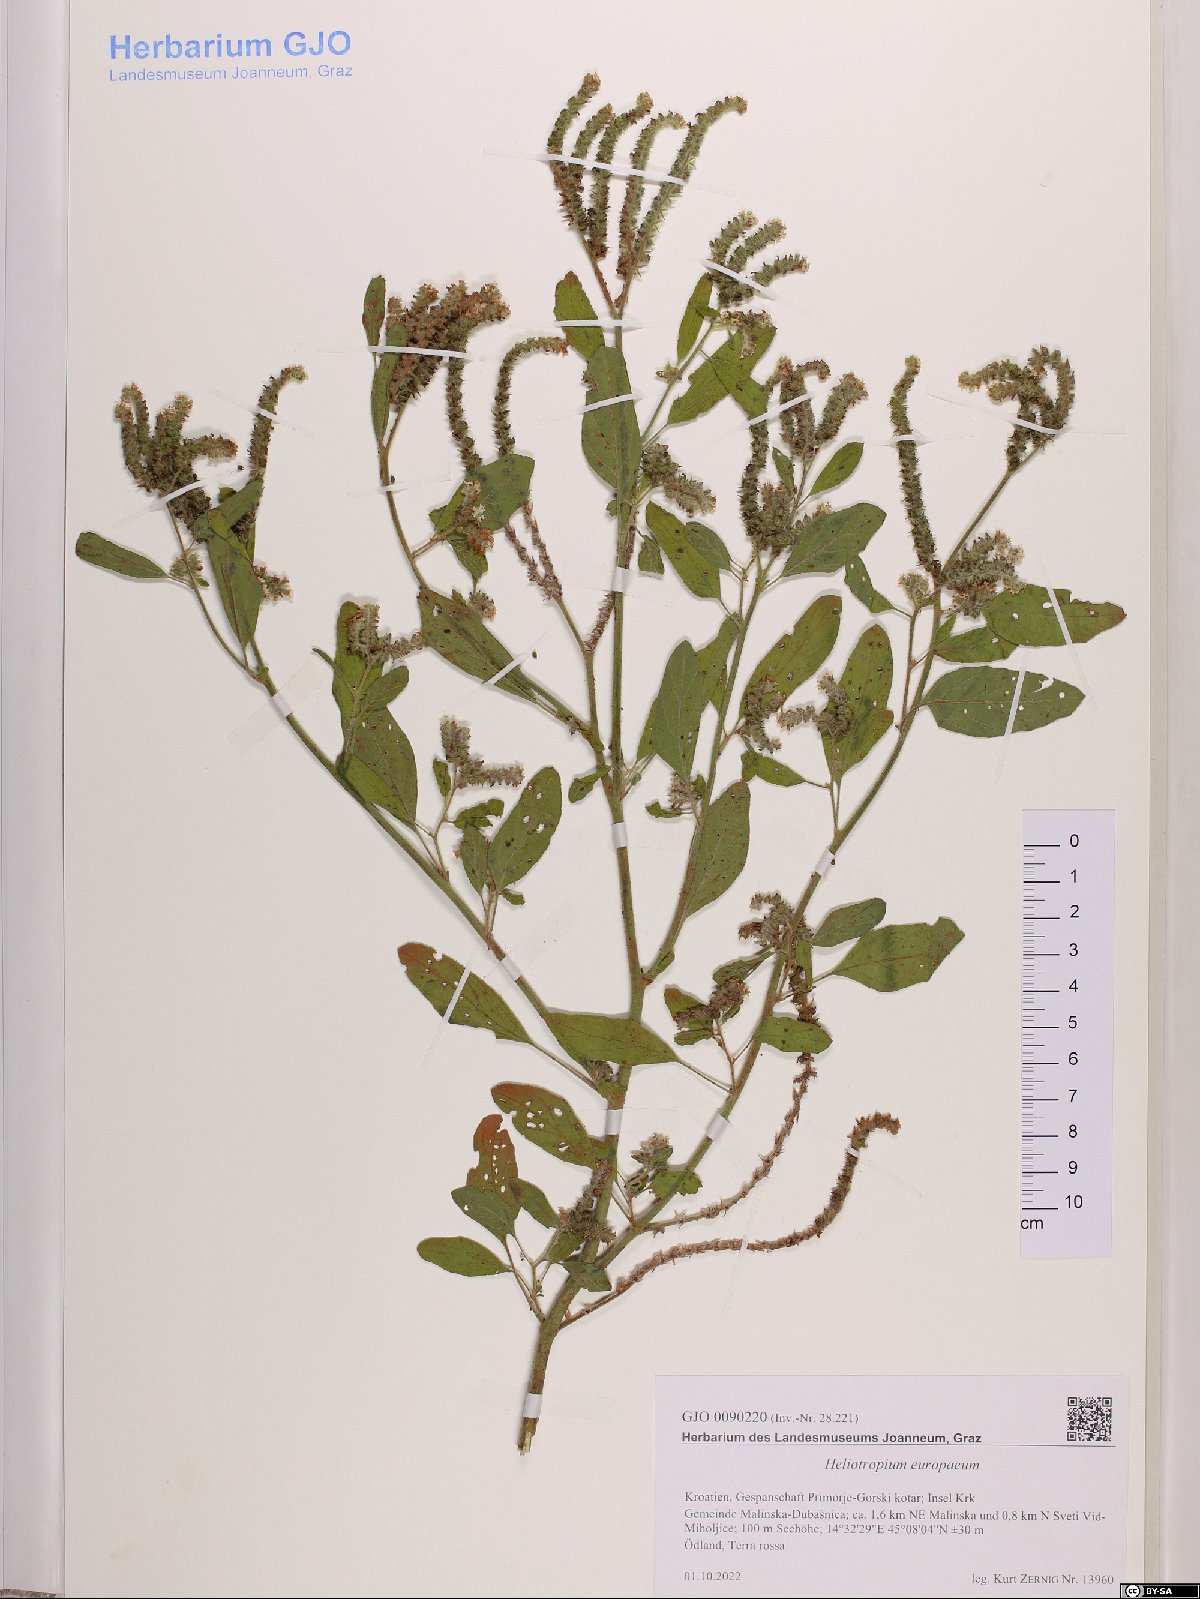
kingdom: Plantae
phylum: Tracheophyta
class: Magnoliopsida
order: Boraginales
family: Heliotropiaceae
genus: Heliotropium
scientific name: Heliotropium europaeum
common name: European heliotrope
